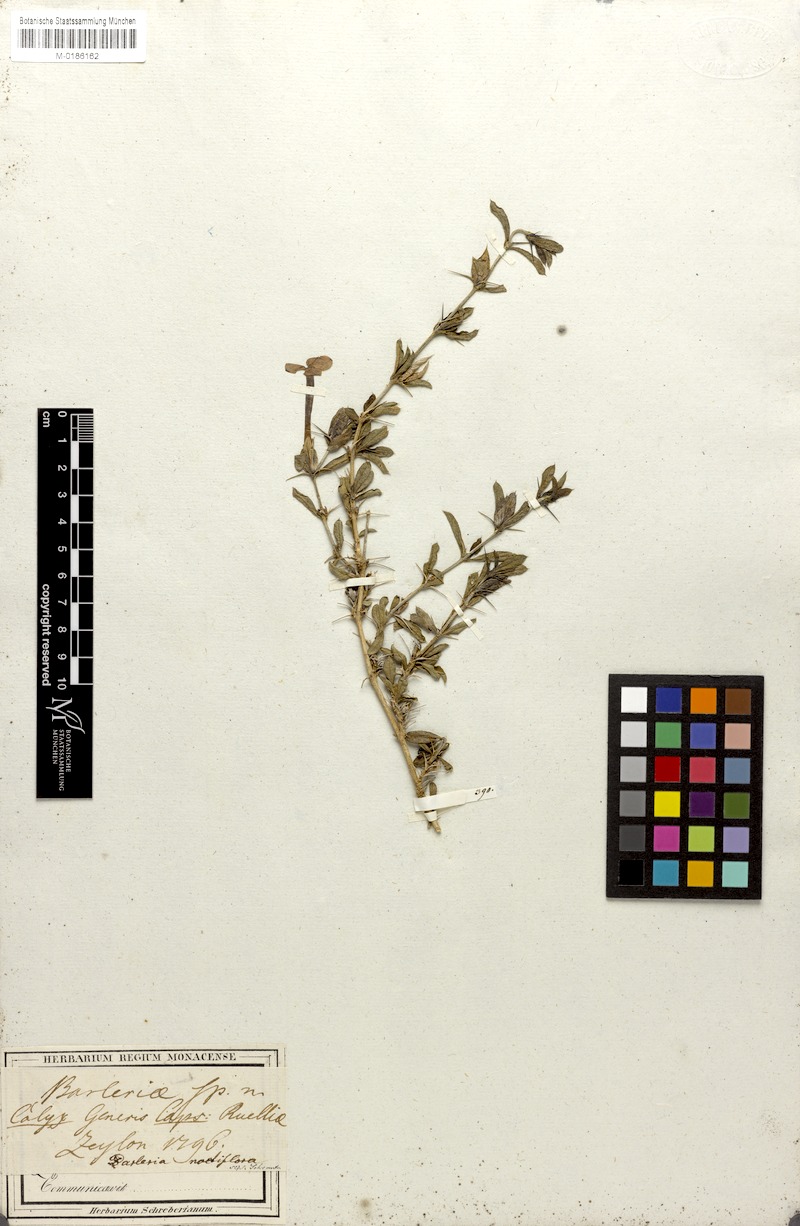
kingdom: Plantae
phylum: Tracheophyta
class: Magnoliopsida
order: Lamiales
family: Acanthaceae
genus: Barleria
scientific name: Barleria noctiflora
